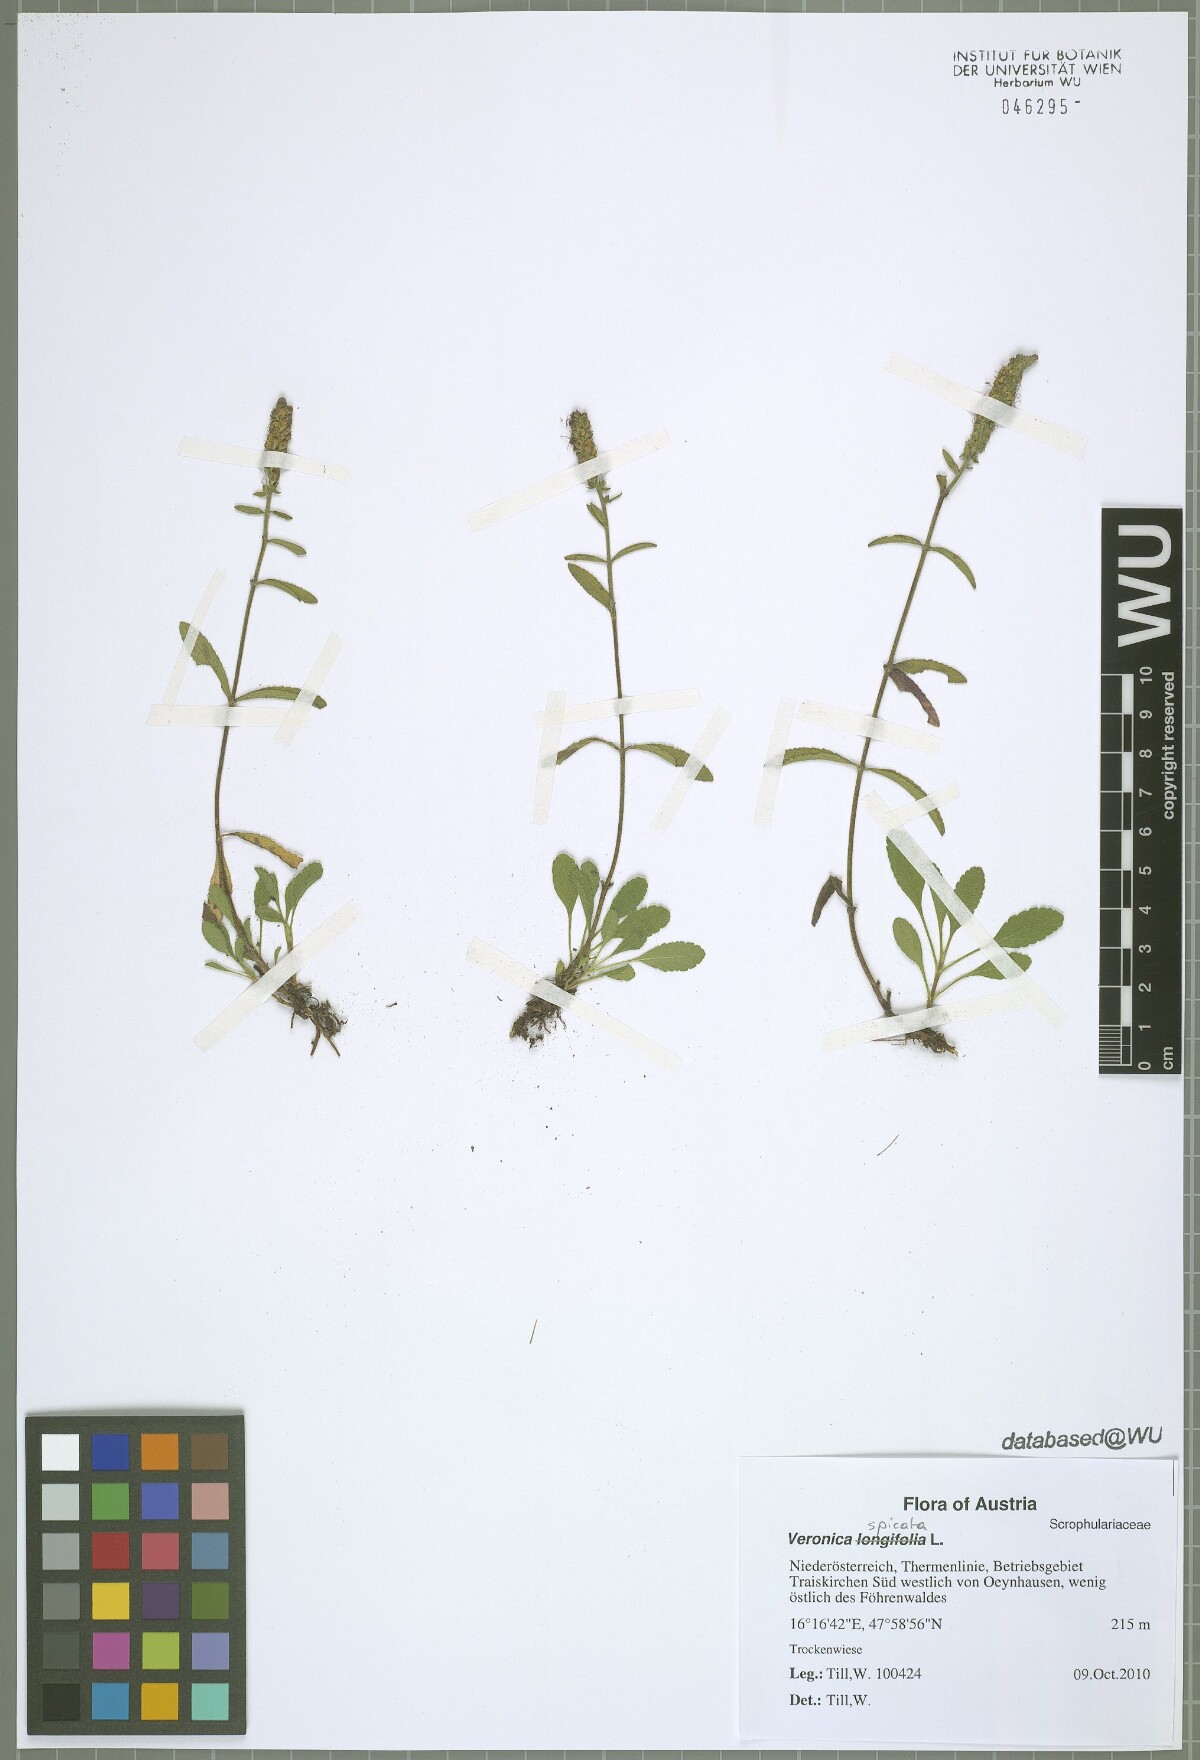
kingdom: Plantae
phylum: Tracheophyta
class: Magnoliopsida
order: Lamiales
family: Plantaginaceae
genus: Veronica
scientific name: Veronica spicata
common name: Spiked speedwell
